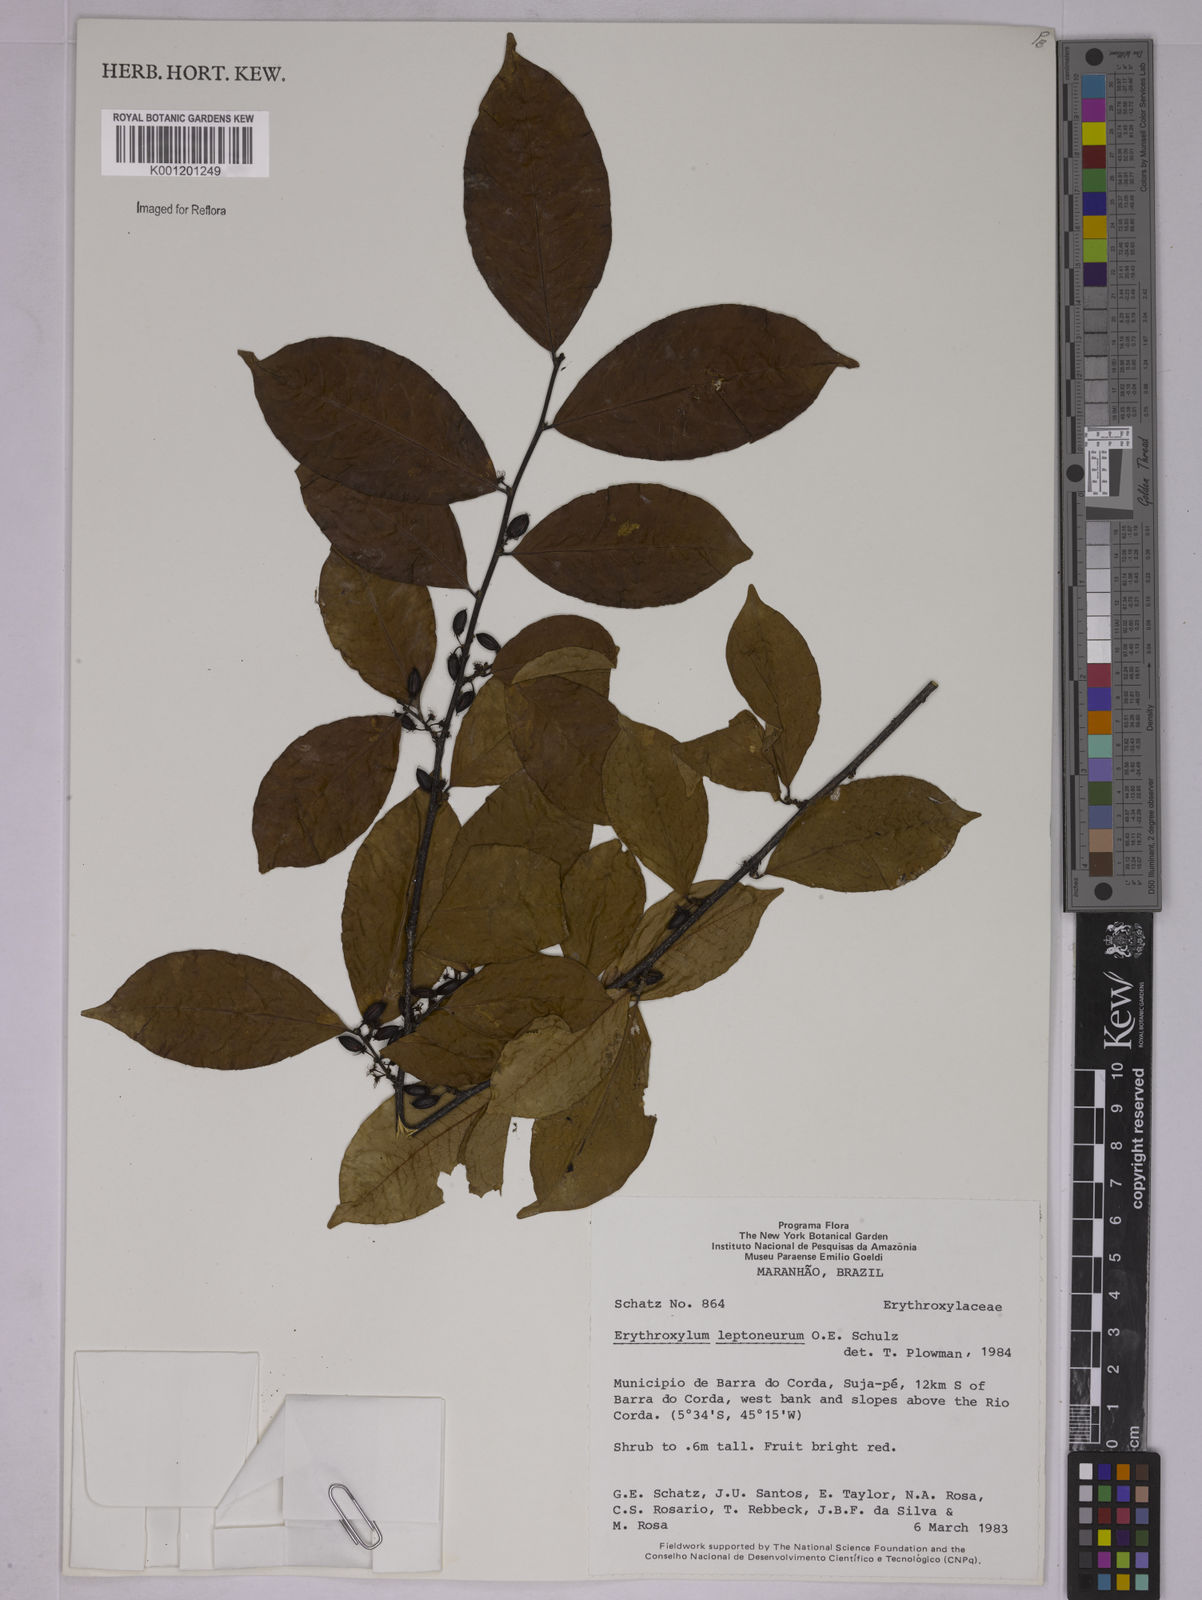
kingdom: Plantae
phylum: Tracheophyta
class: Magnoliopsida
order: Malpighiales
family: Erythroxylaceae
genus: Erythroxylum
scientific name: Erythroxylum leptoneurum
